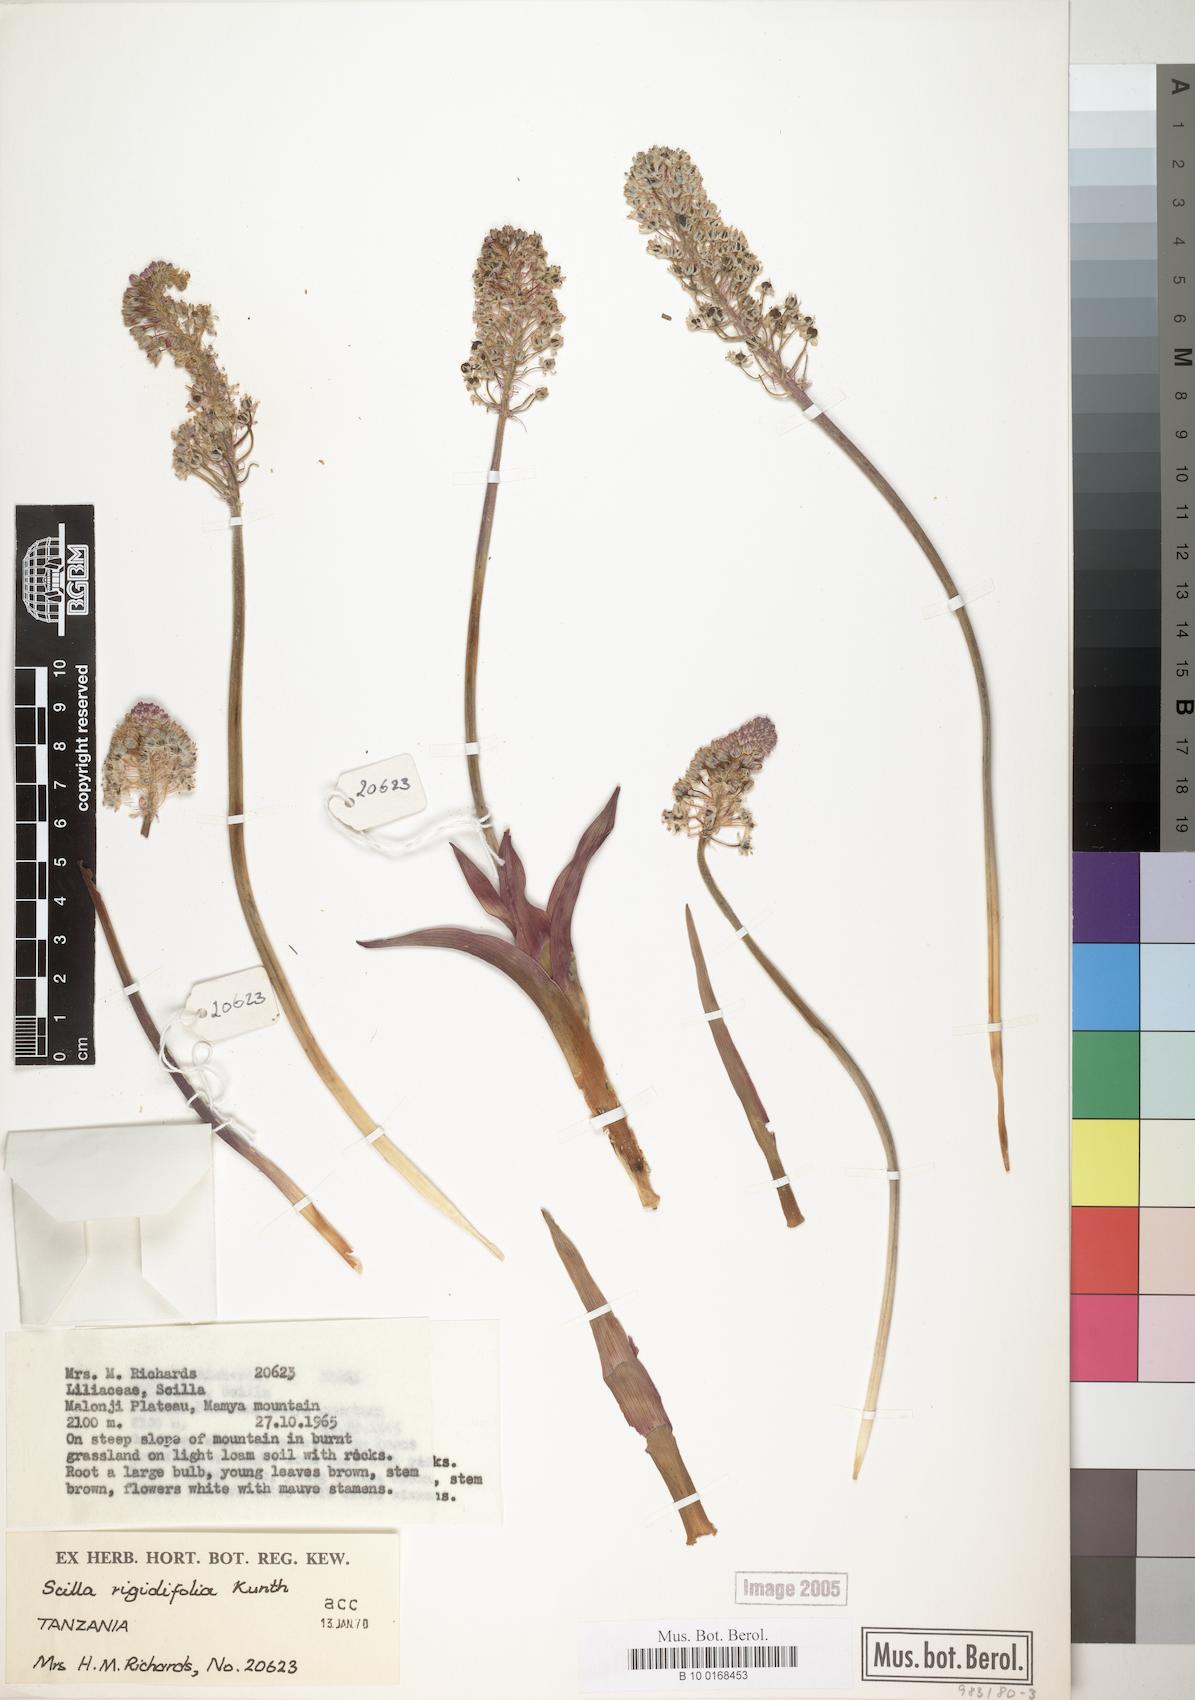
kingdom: Plantae
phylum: Tracheophyta
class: Liliopsida
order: Asparagales
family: Asparagaceae
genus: Schizocarphus
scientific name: Schizocarphus nervosus
